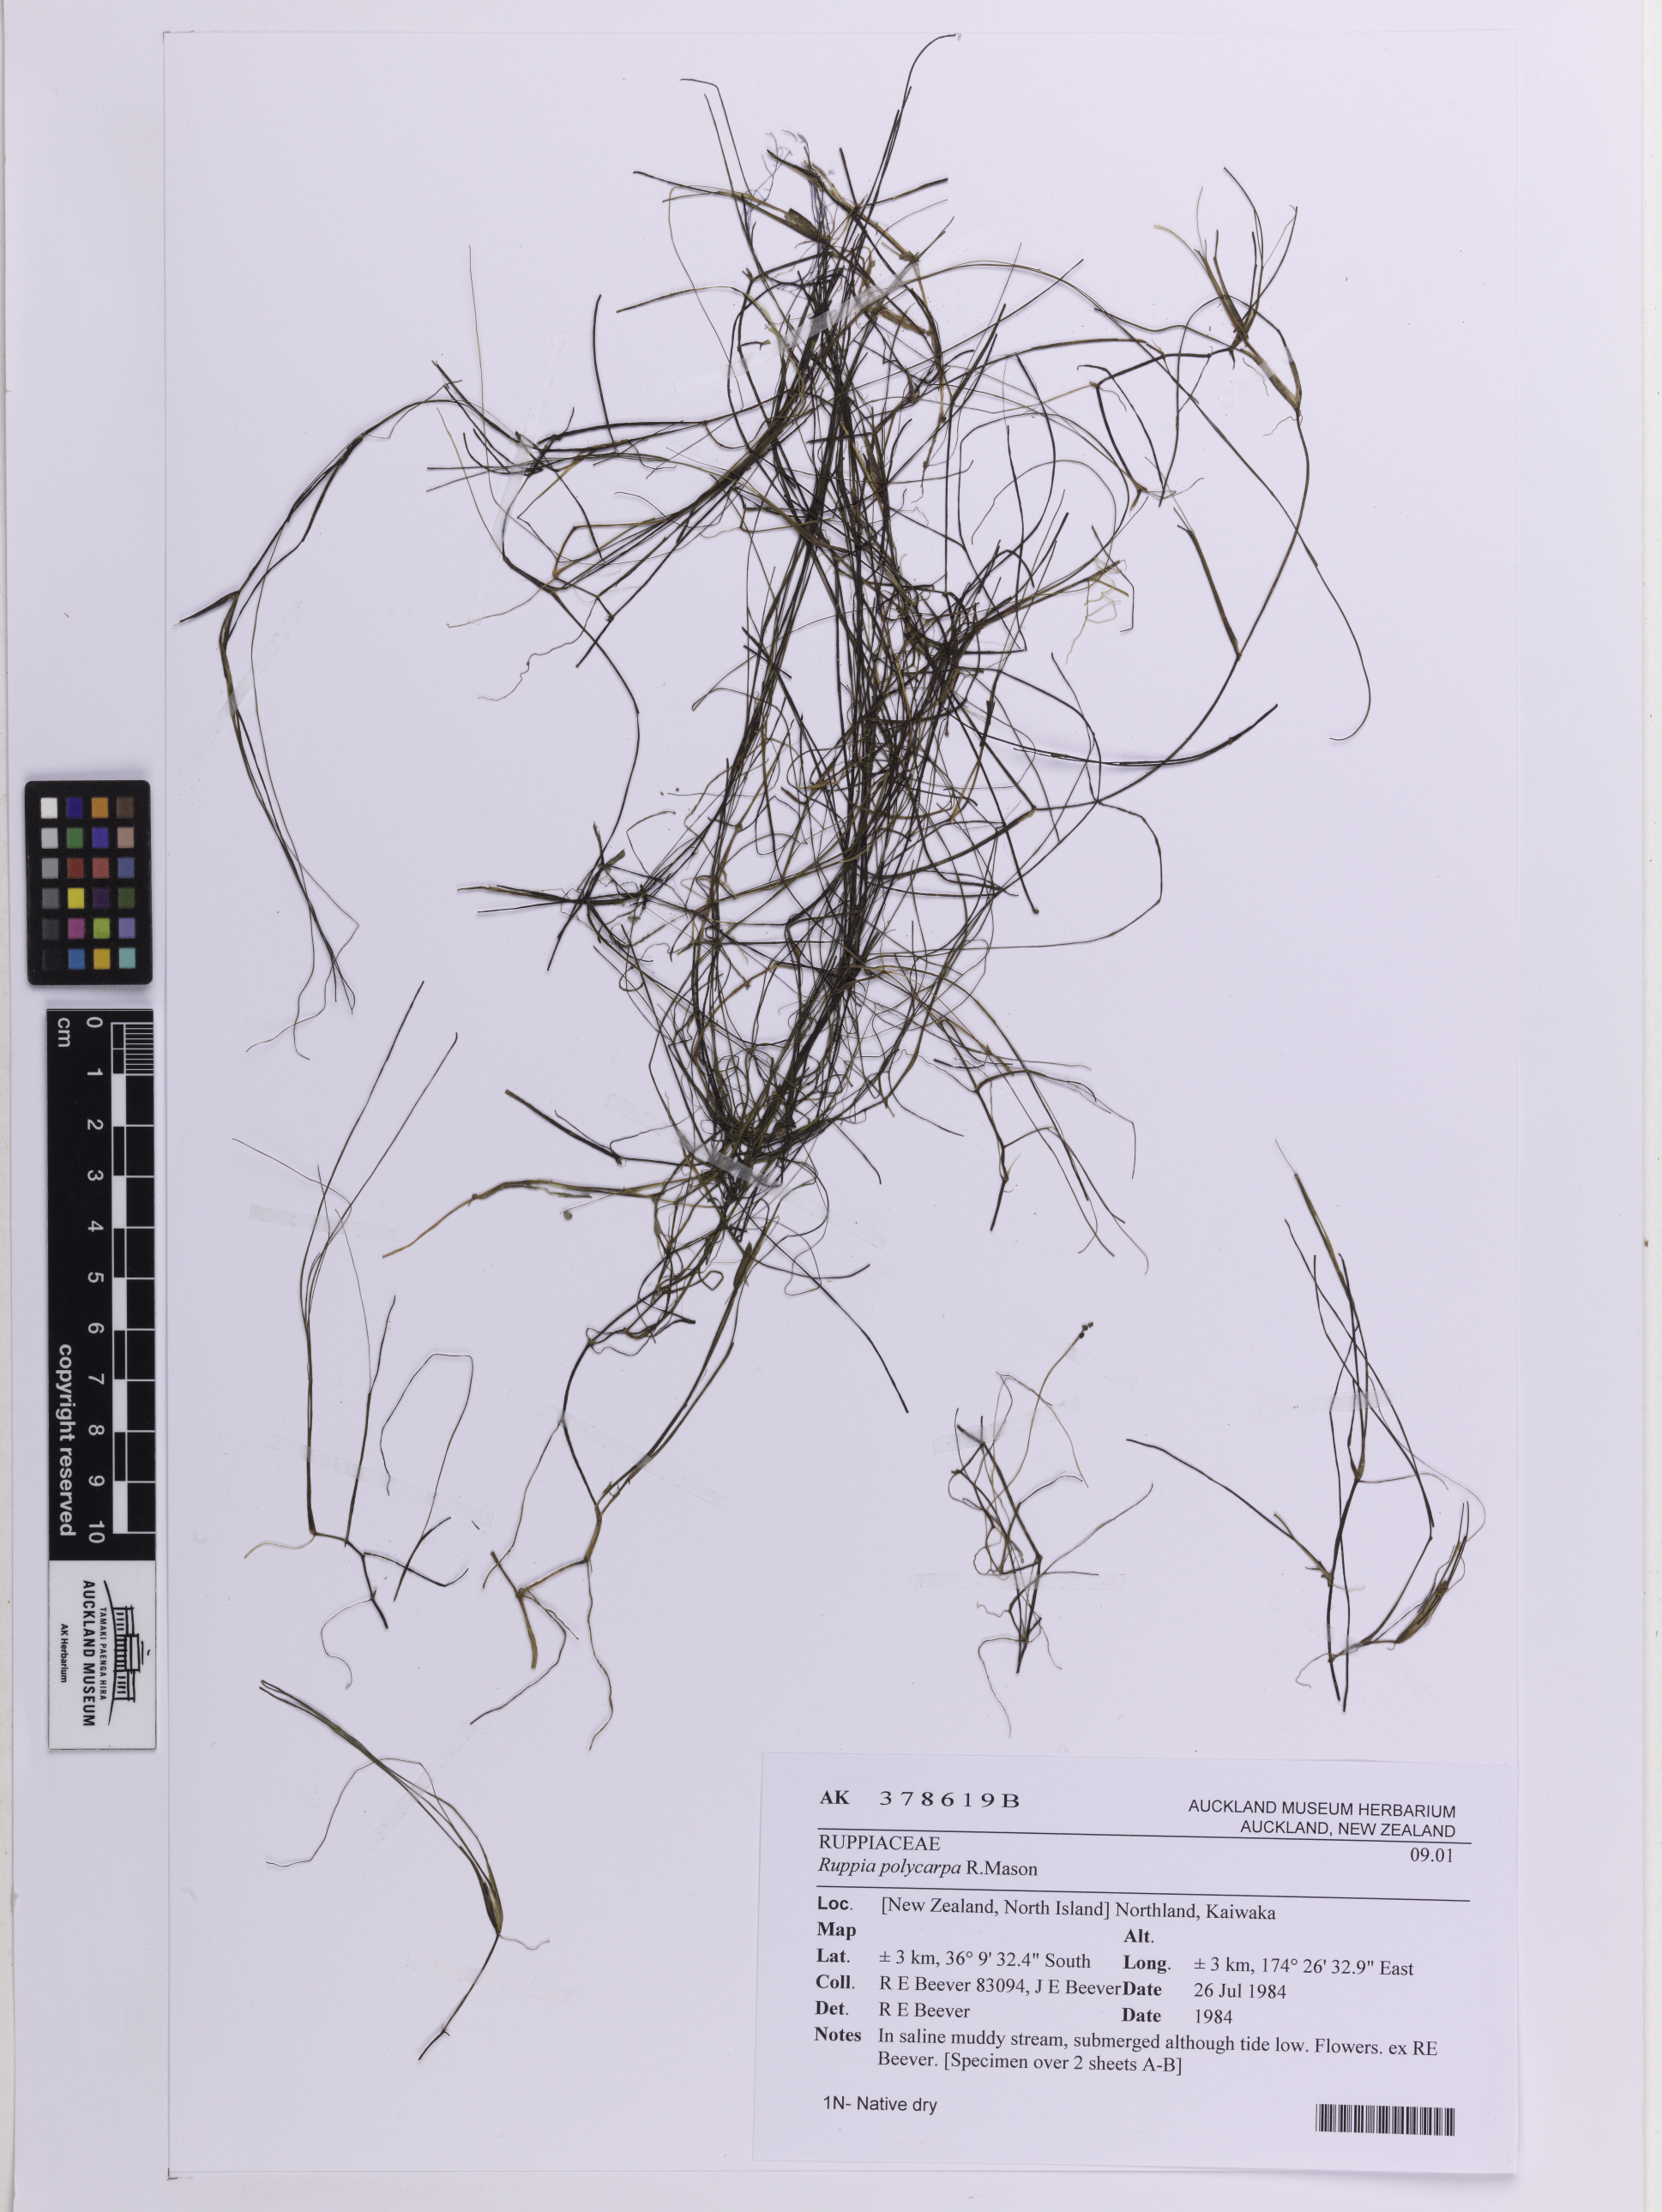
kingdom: Plantae
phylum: Tracheophyta
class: Liliopsida
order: Alismatales
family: Ruppiaceae
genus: Ruppia
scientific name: Ruppia polycarpa
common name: Species code: rp
